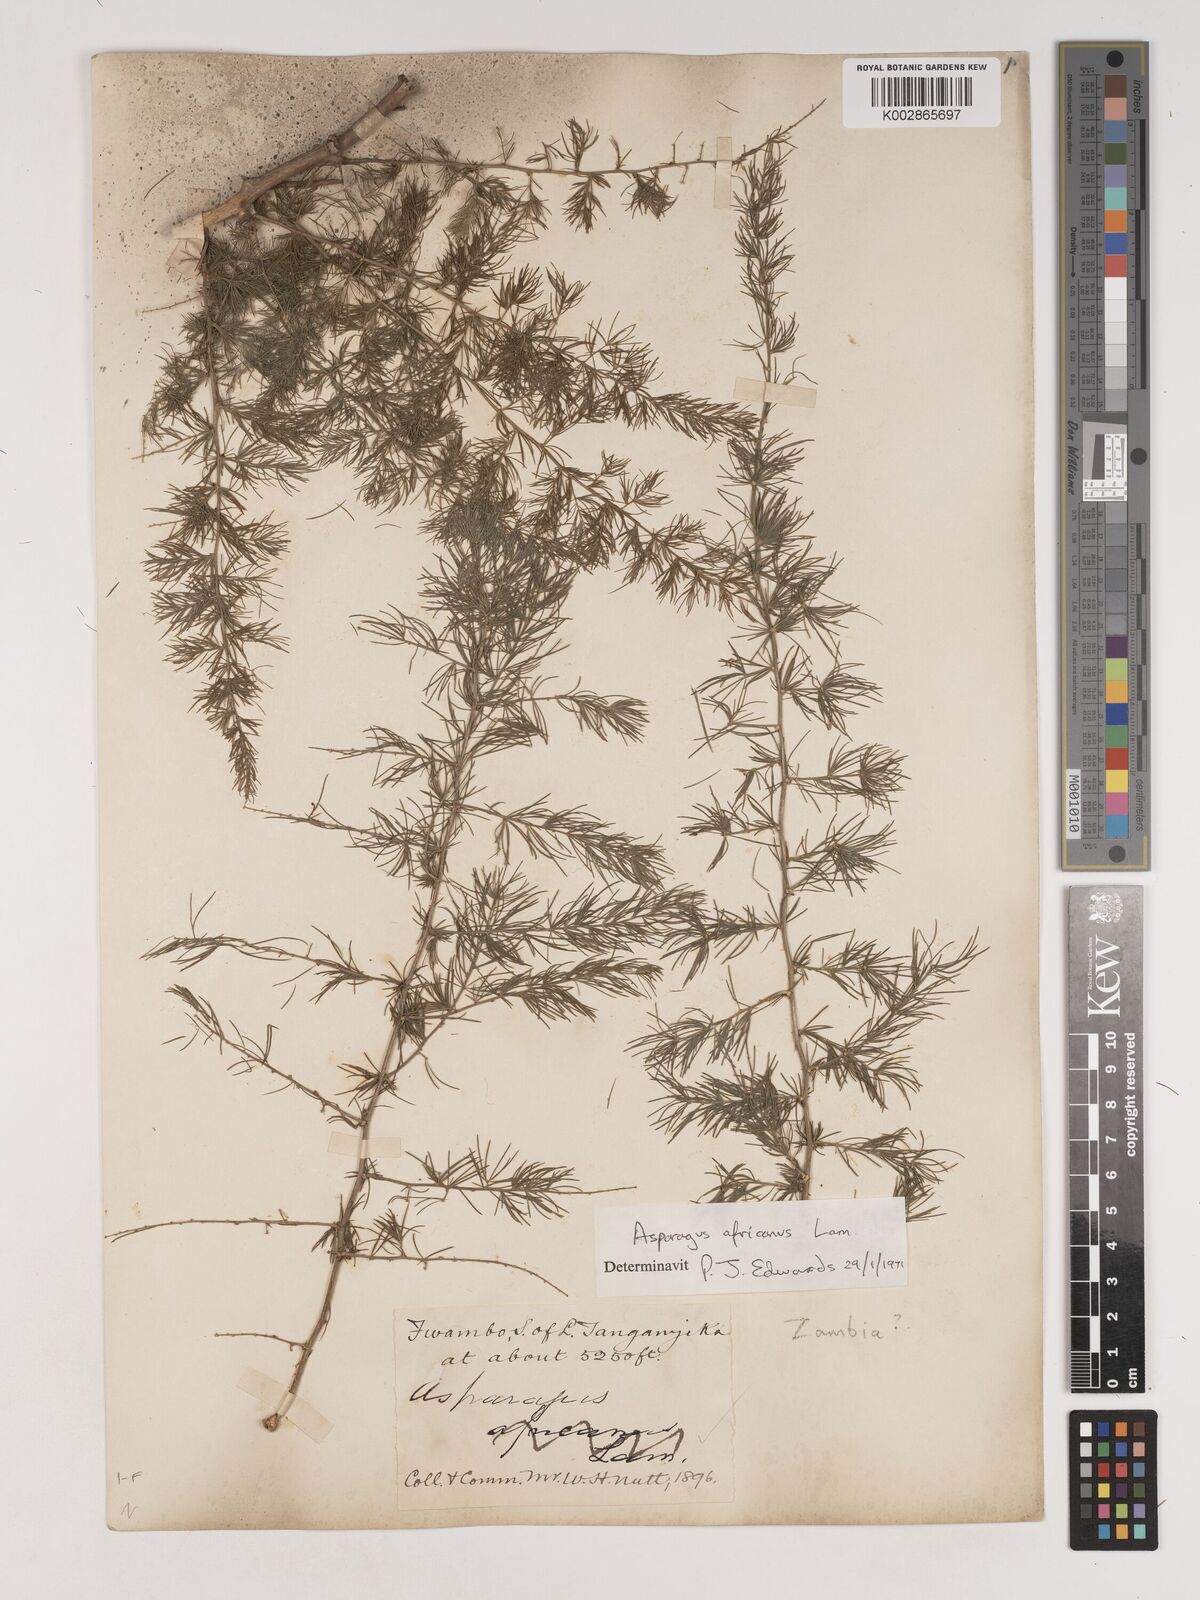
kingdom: Plantae
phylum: Tracheophyta
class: Liliopsida
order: Asparagales
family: Asparagaceae
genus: Asparagus
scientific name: Asparagus africanus
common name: Asparagus-fern
